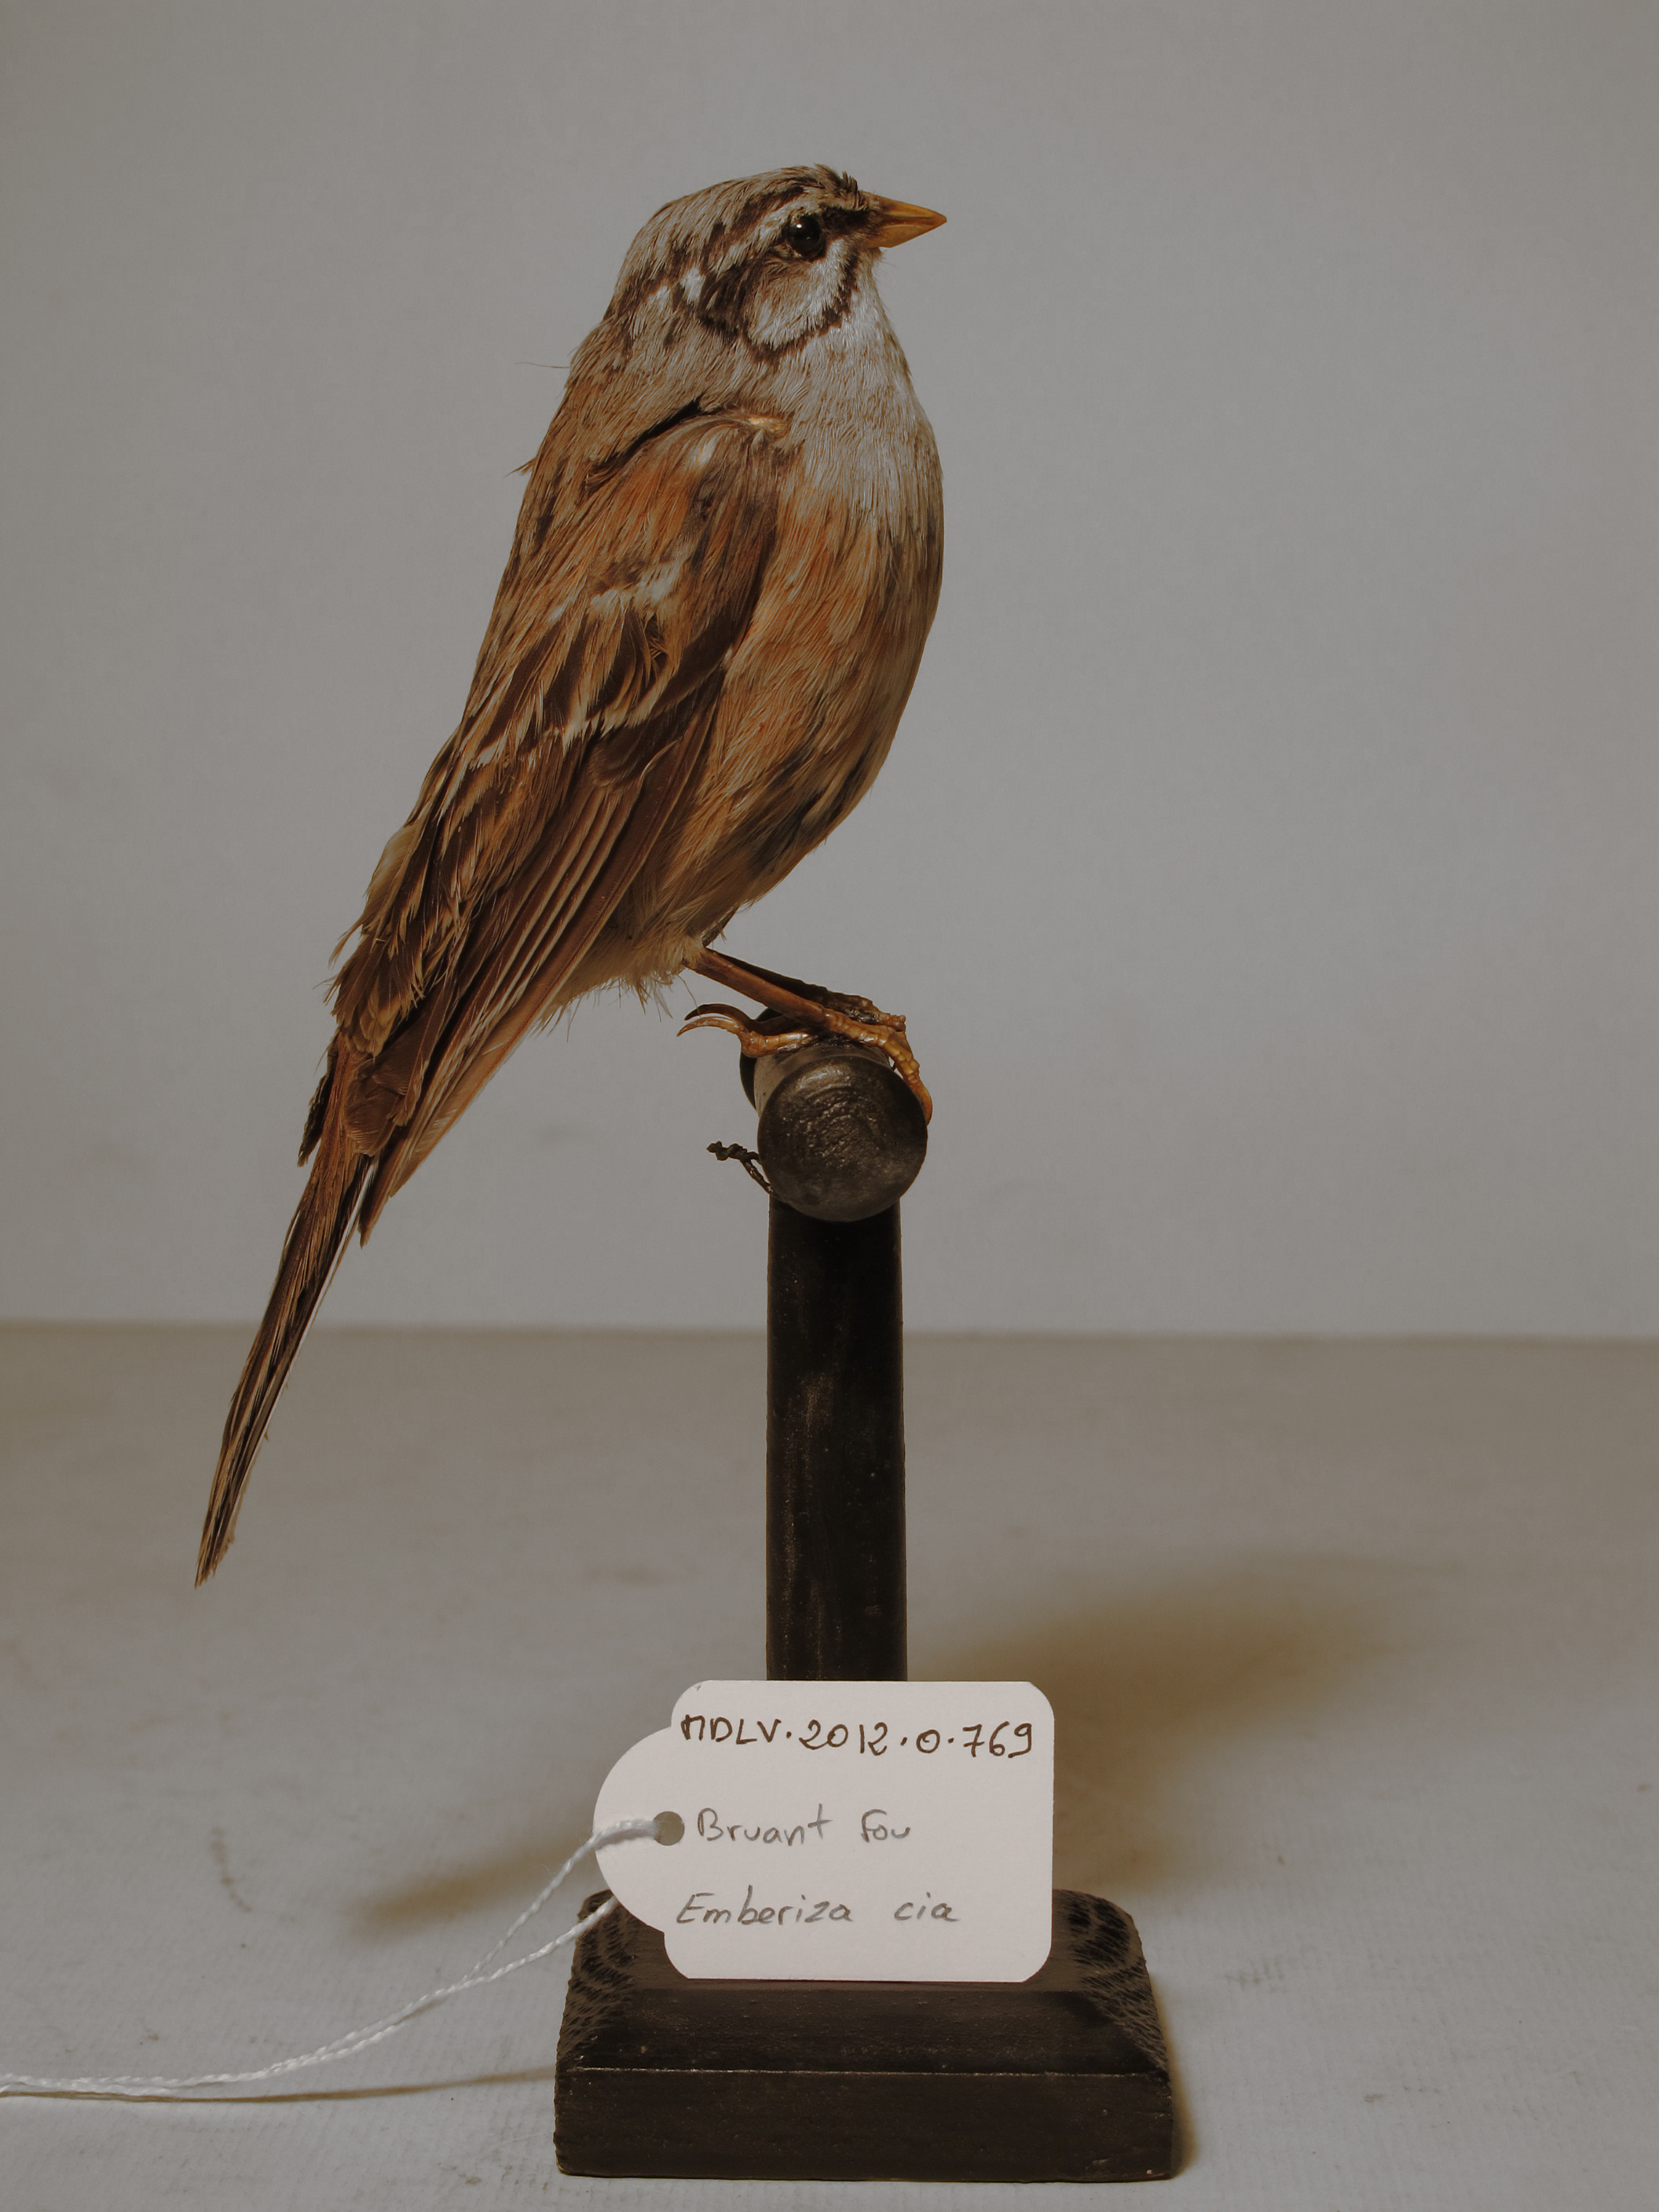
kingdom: Animalia
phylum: Chordata
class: Aves
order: Passeriformes
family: Emberizidae
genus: Emberiza
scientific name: Emberiza cia
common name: Rock Bunting
